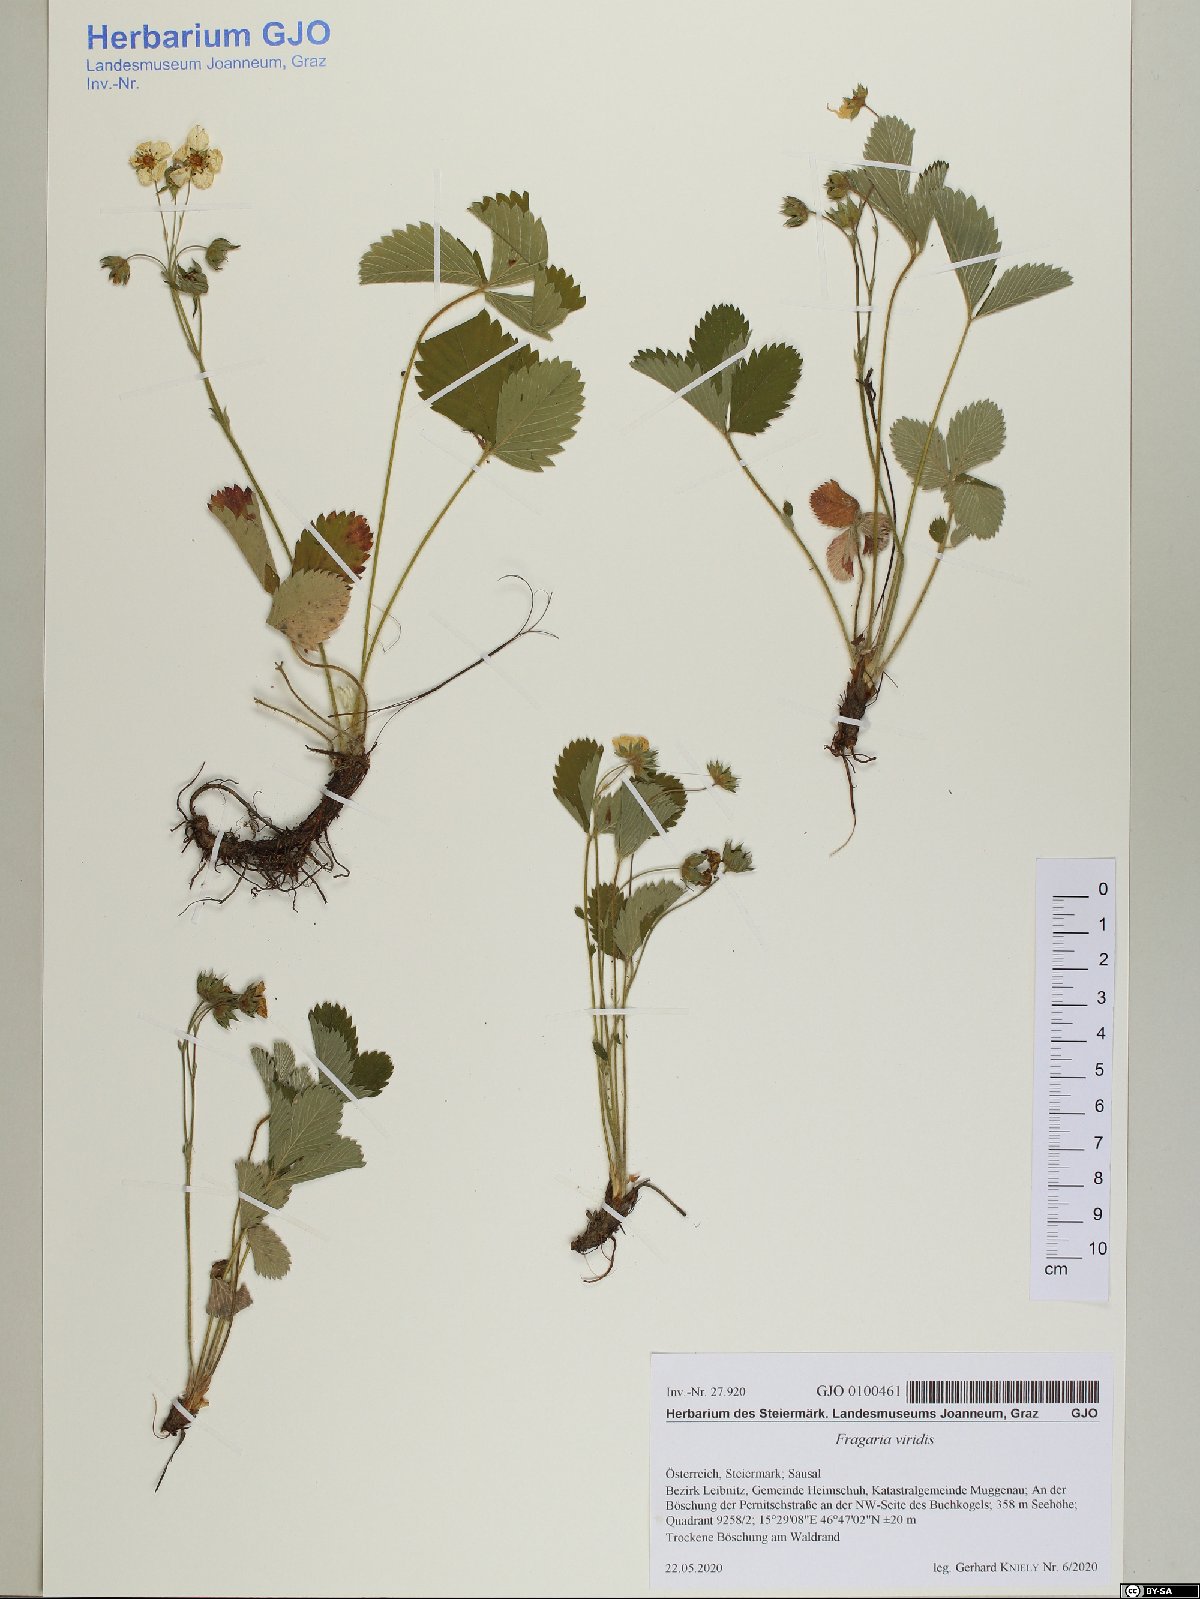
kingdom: Plantae
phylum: Tracheophyta
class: Magnoliopsida
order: Rosales
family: Rosaceae
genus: Fragaria
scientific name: Fragaria viridis
